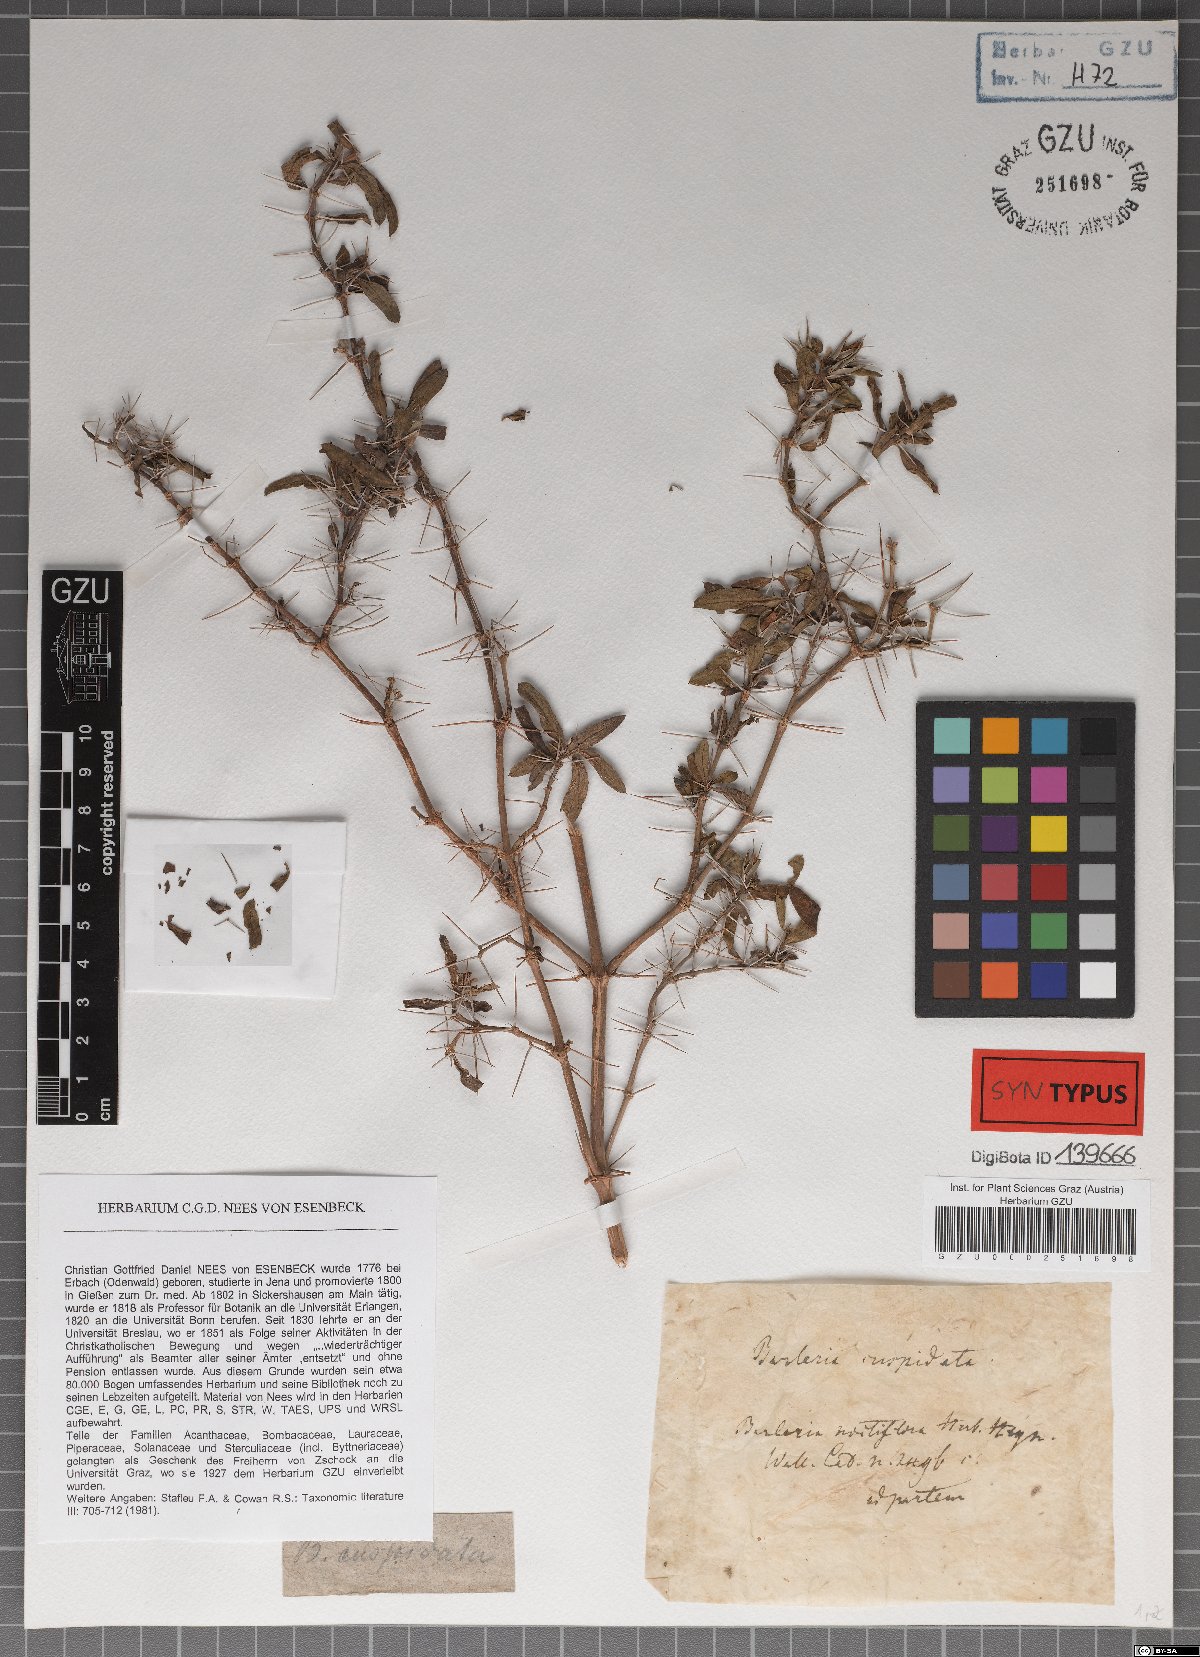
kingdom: Plantae
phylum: Tracheophyta
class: Magnoliopsida
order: Lamiales
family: Acanthaceae
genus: Barleria
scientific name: Barleria cuspidata
